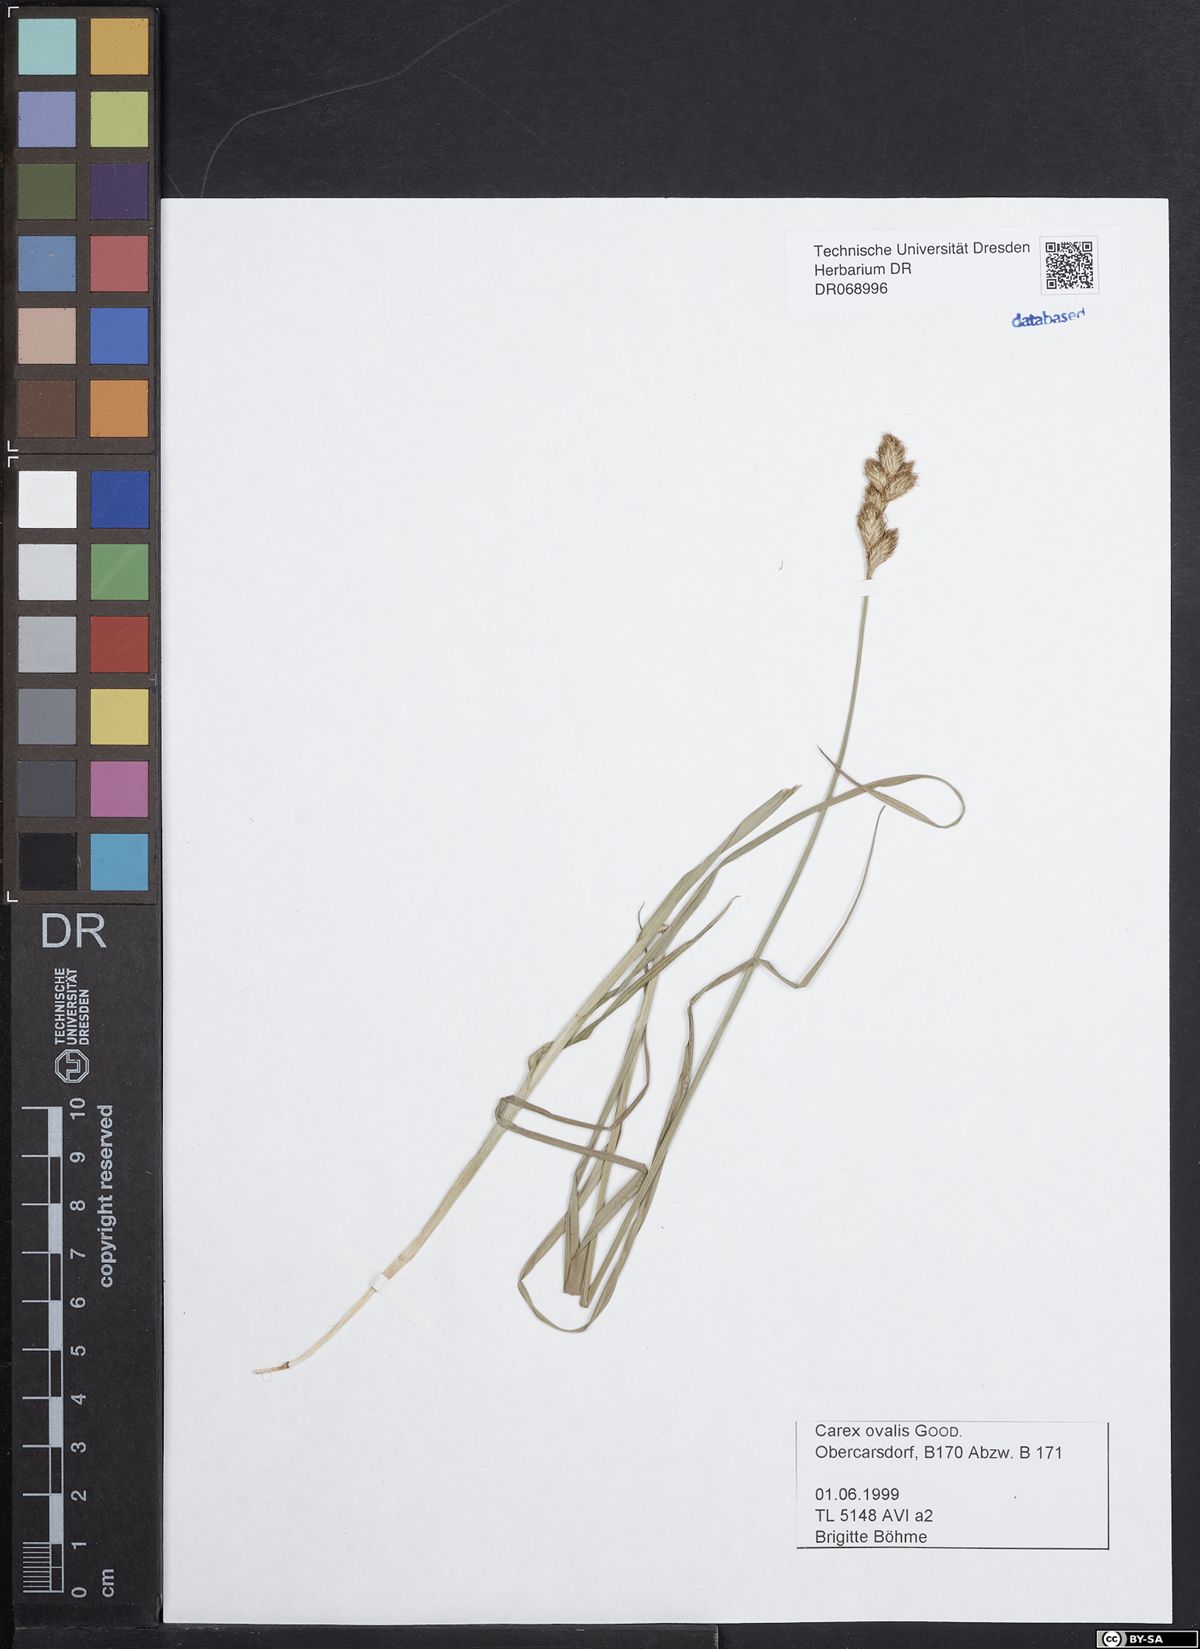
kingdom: Plantae
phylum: Tracheophyta
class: Liliopsida
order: Poales
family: Cyperaceae
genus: Carex
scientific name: Carex leporina
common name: Oval sedge
